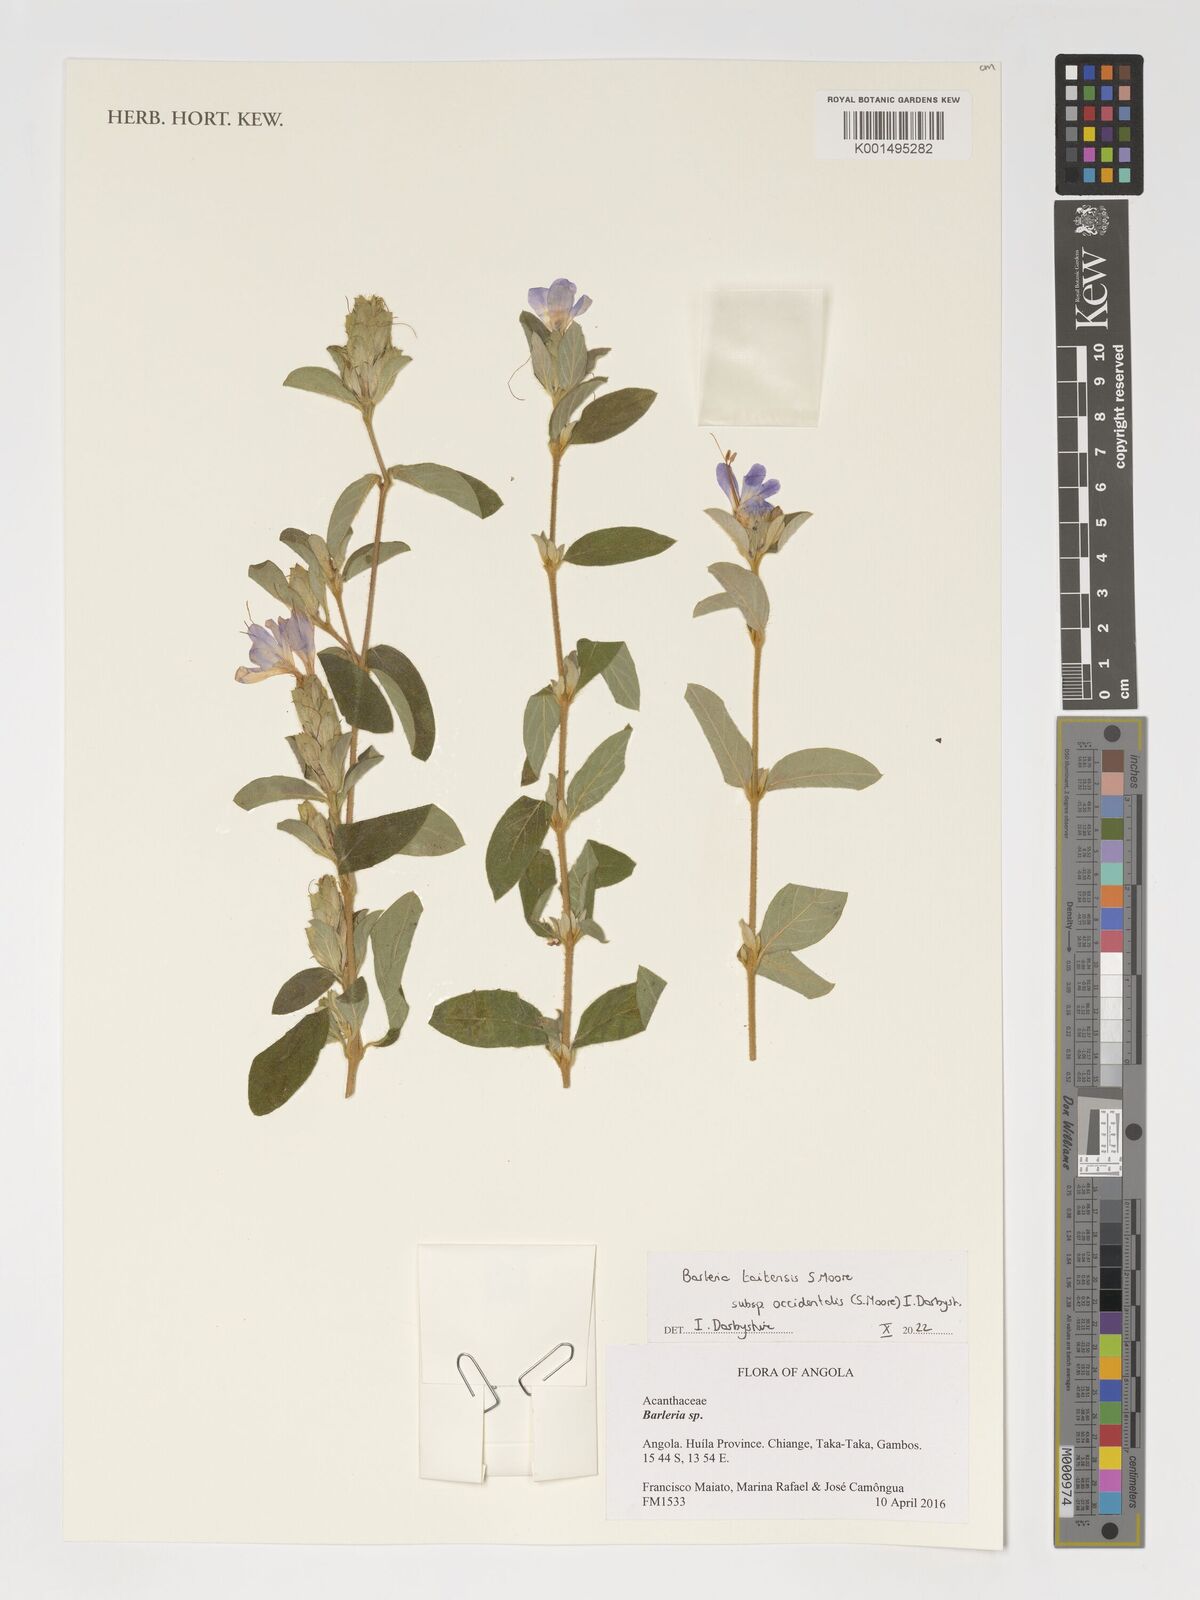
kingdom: Plantae
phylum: Tracheophyta
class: Magnoliopsida
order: Lamiales
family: Acanthaceae
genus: Barleria
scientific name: Barleria taitensis
